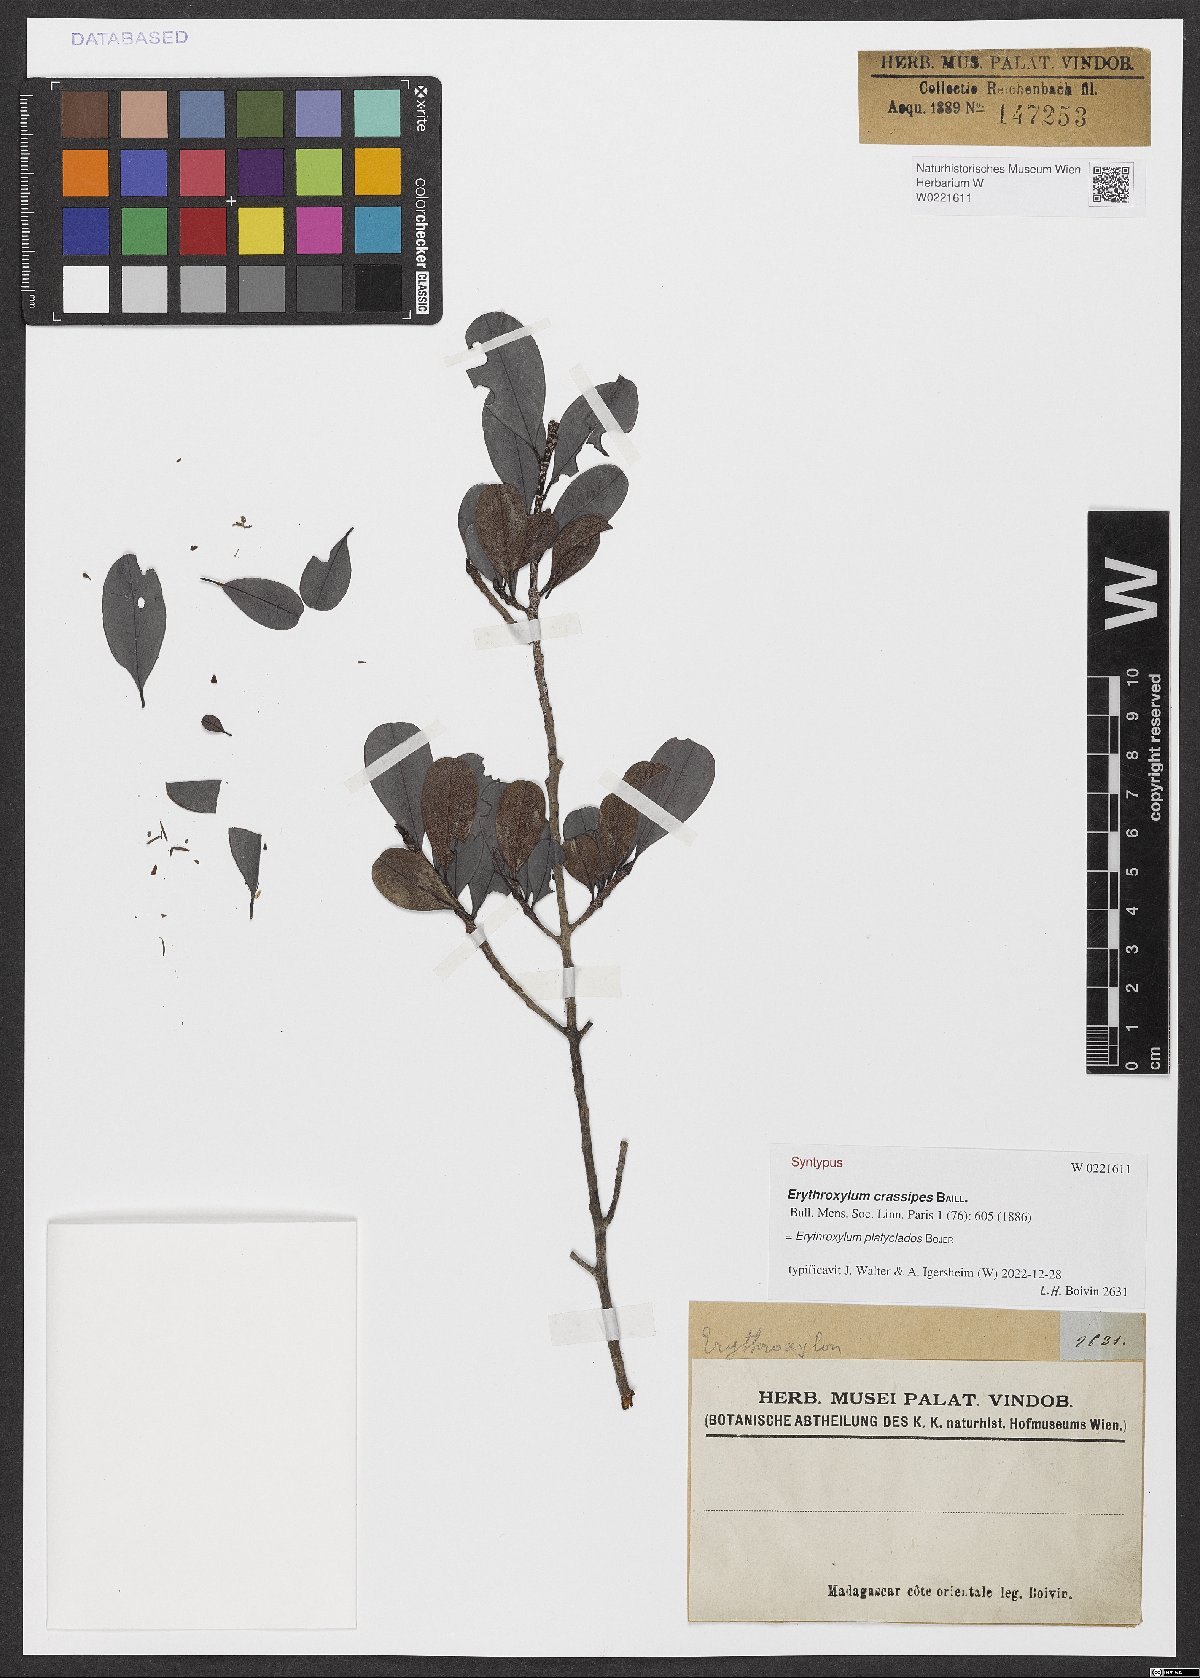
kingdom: Plantae
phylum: Tracheophyta
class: Magnoliopsida
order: Malpighiales
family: Erythroxylaceae
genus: Erythroxylum
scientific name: Erythroxylum platyclados
